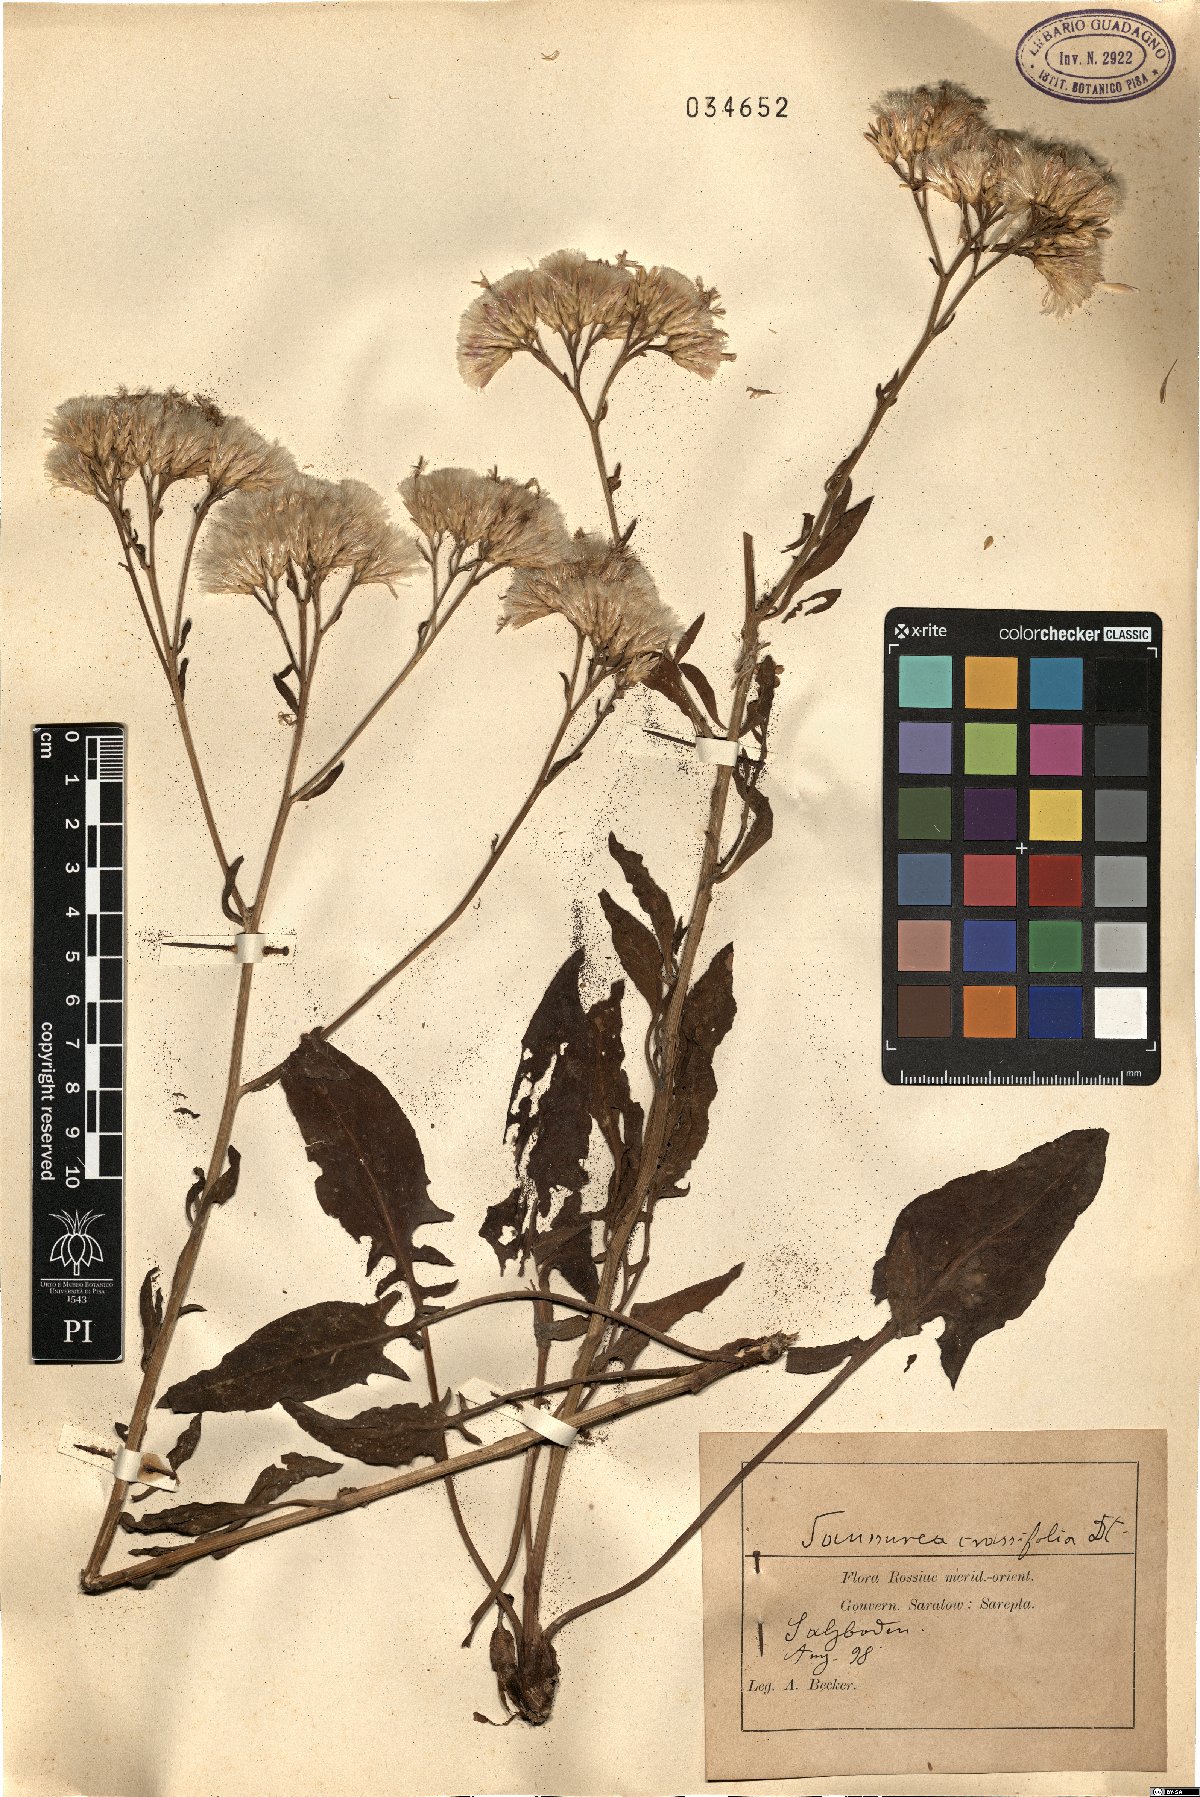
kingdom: Plantae
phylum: Tracheophyta
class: Magnoliopsida
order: Asterales
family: Asteraceae
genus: Saussurea
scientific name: Saussurea salsa
